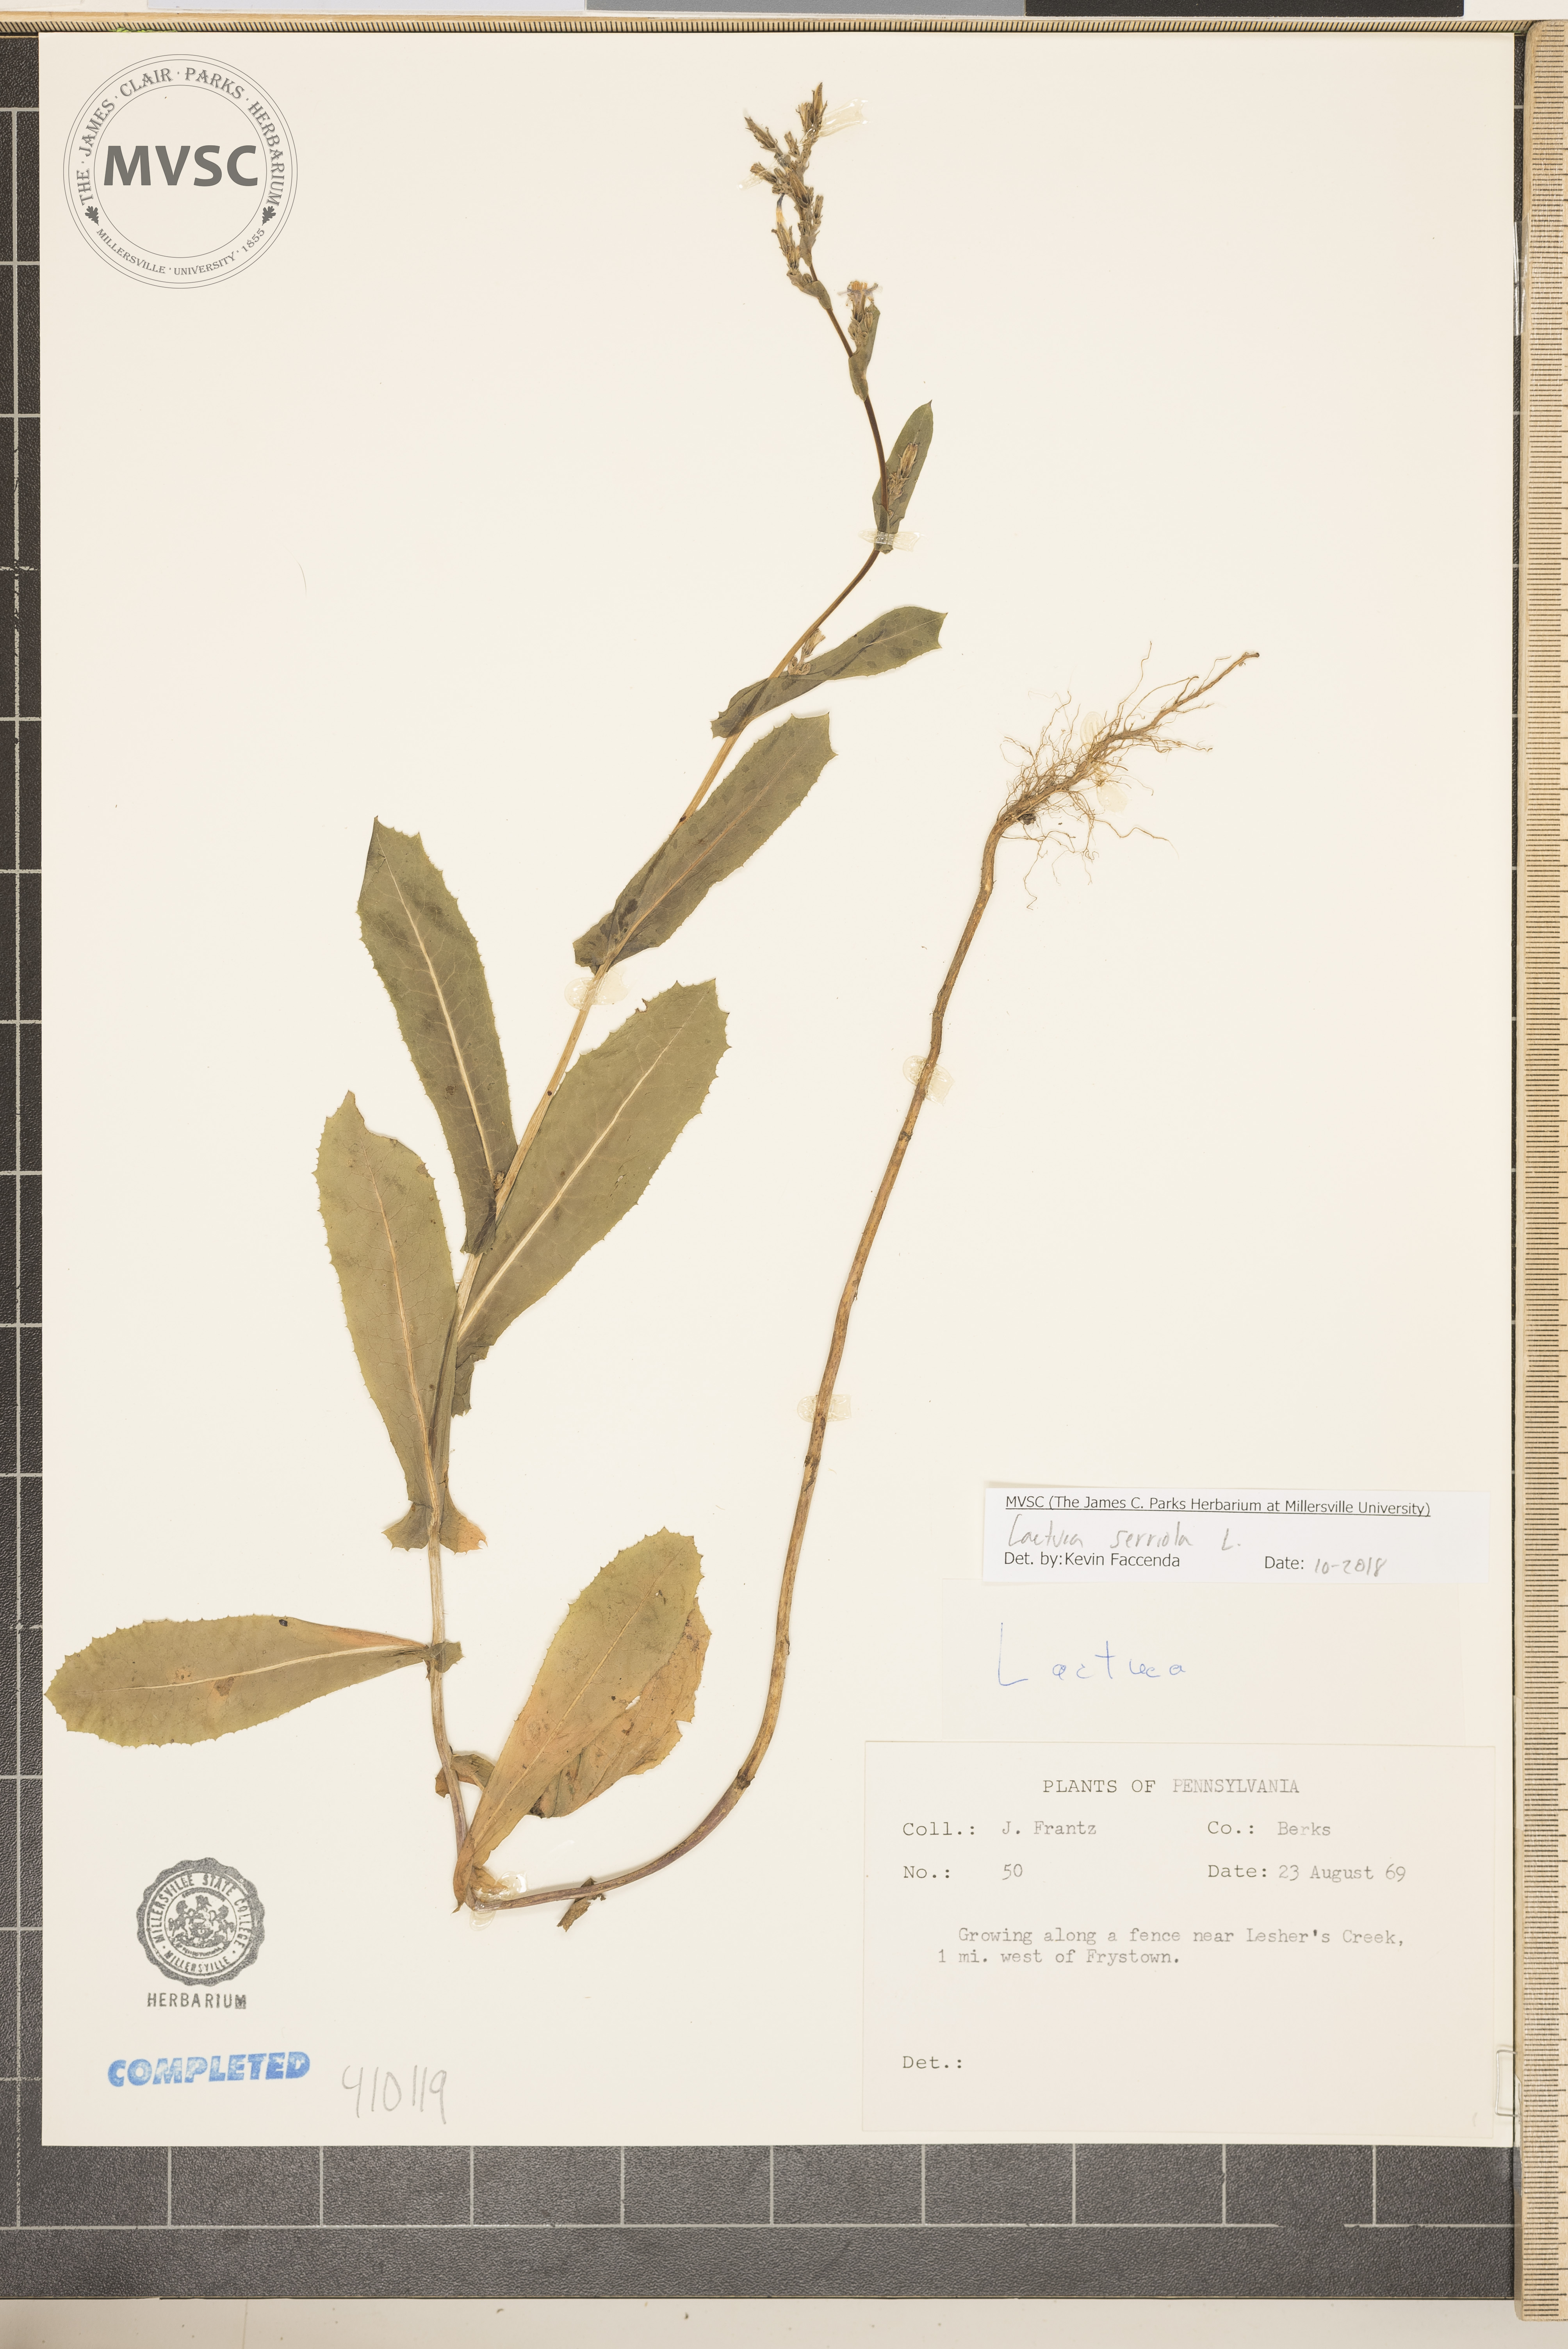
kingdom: Plantae
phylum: Tracheophyta
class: Magnoliopsida
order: Asterales
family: Asteraceae
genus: Lactuca
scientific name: Lactuca serriola
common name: Prickly lettuce
